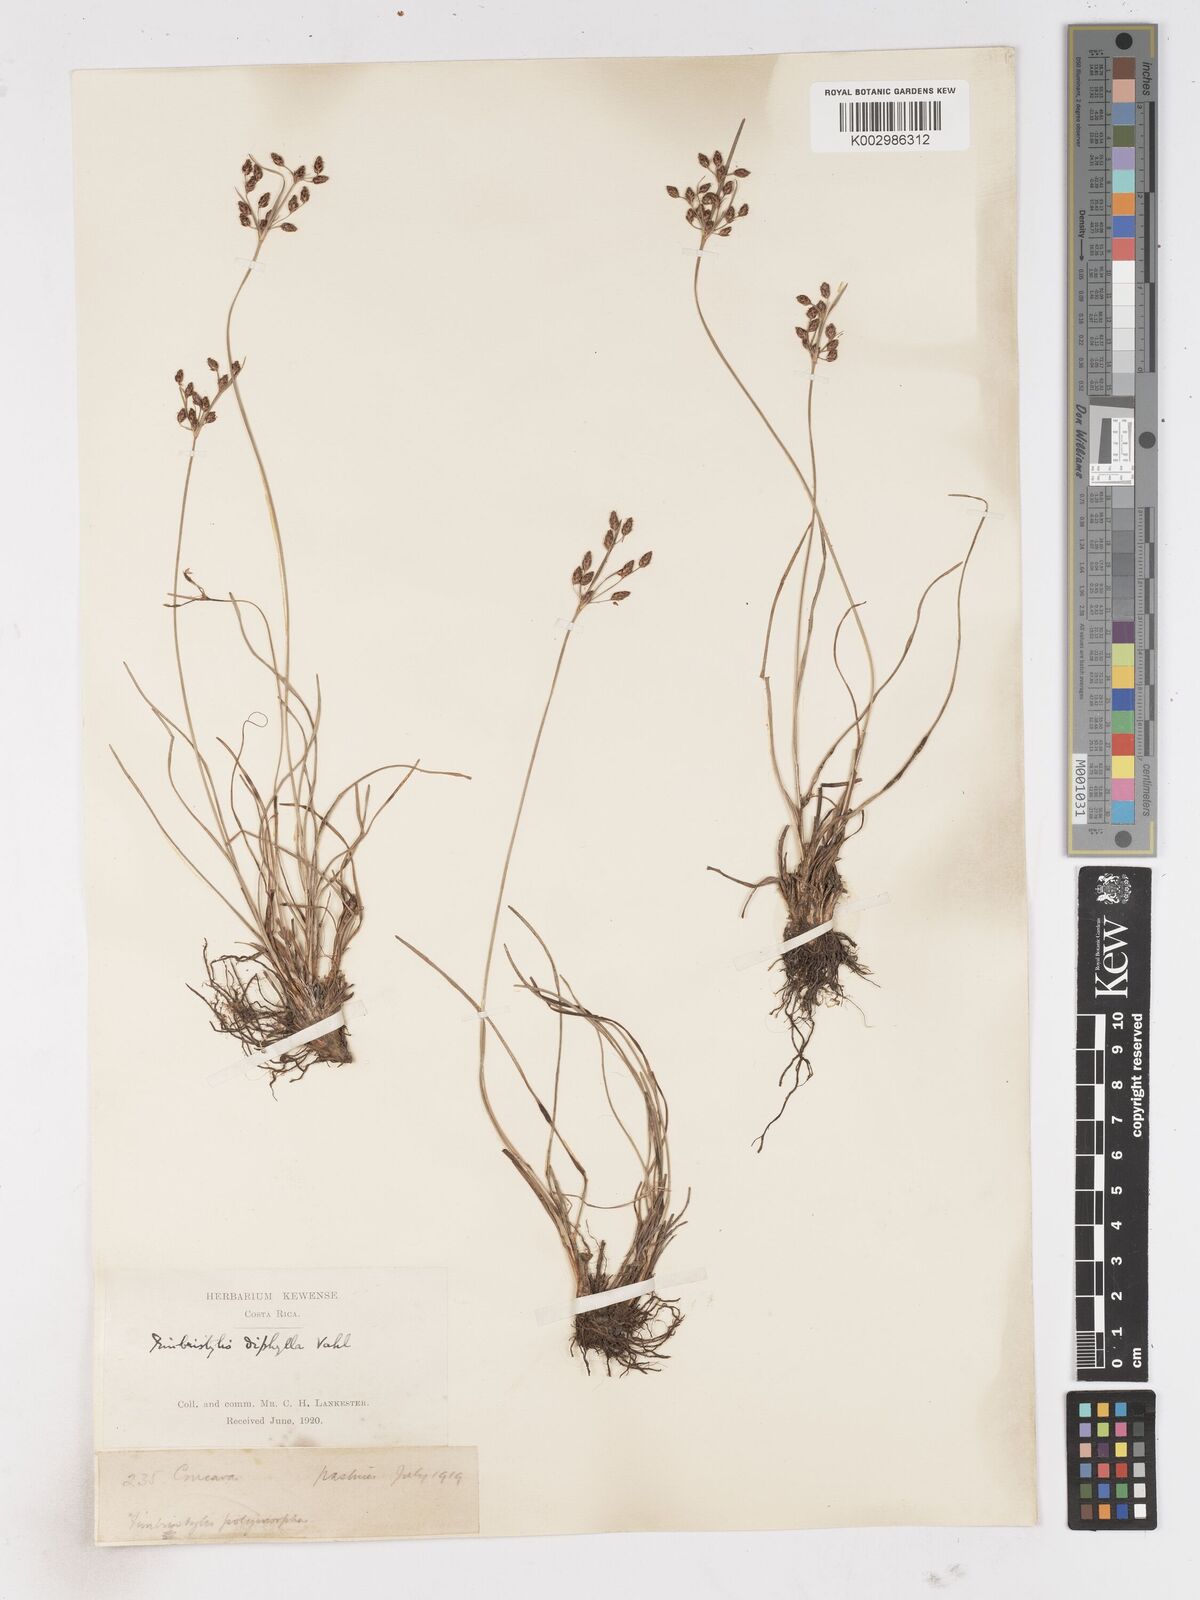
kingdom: Plantae
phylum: Tracheophyta
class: Liliopsida
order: Poales
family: Cyperaceae
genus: Fimbristylis
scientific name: Fimbristylis dichotoma
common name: Forked fimbry
